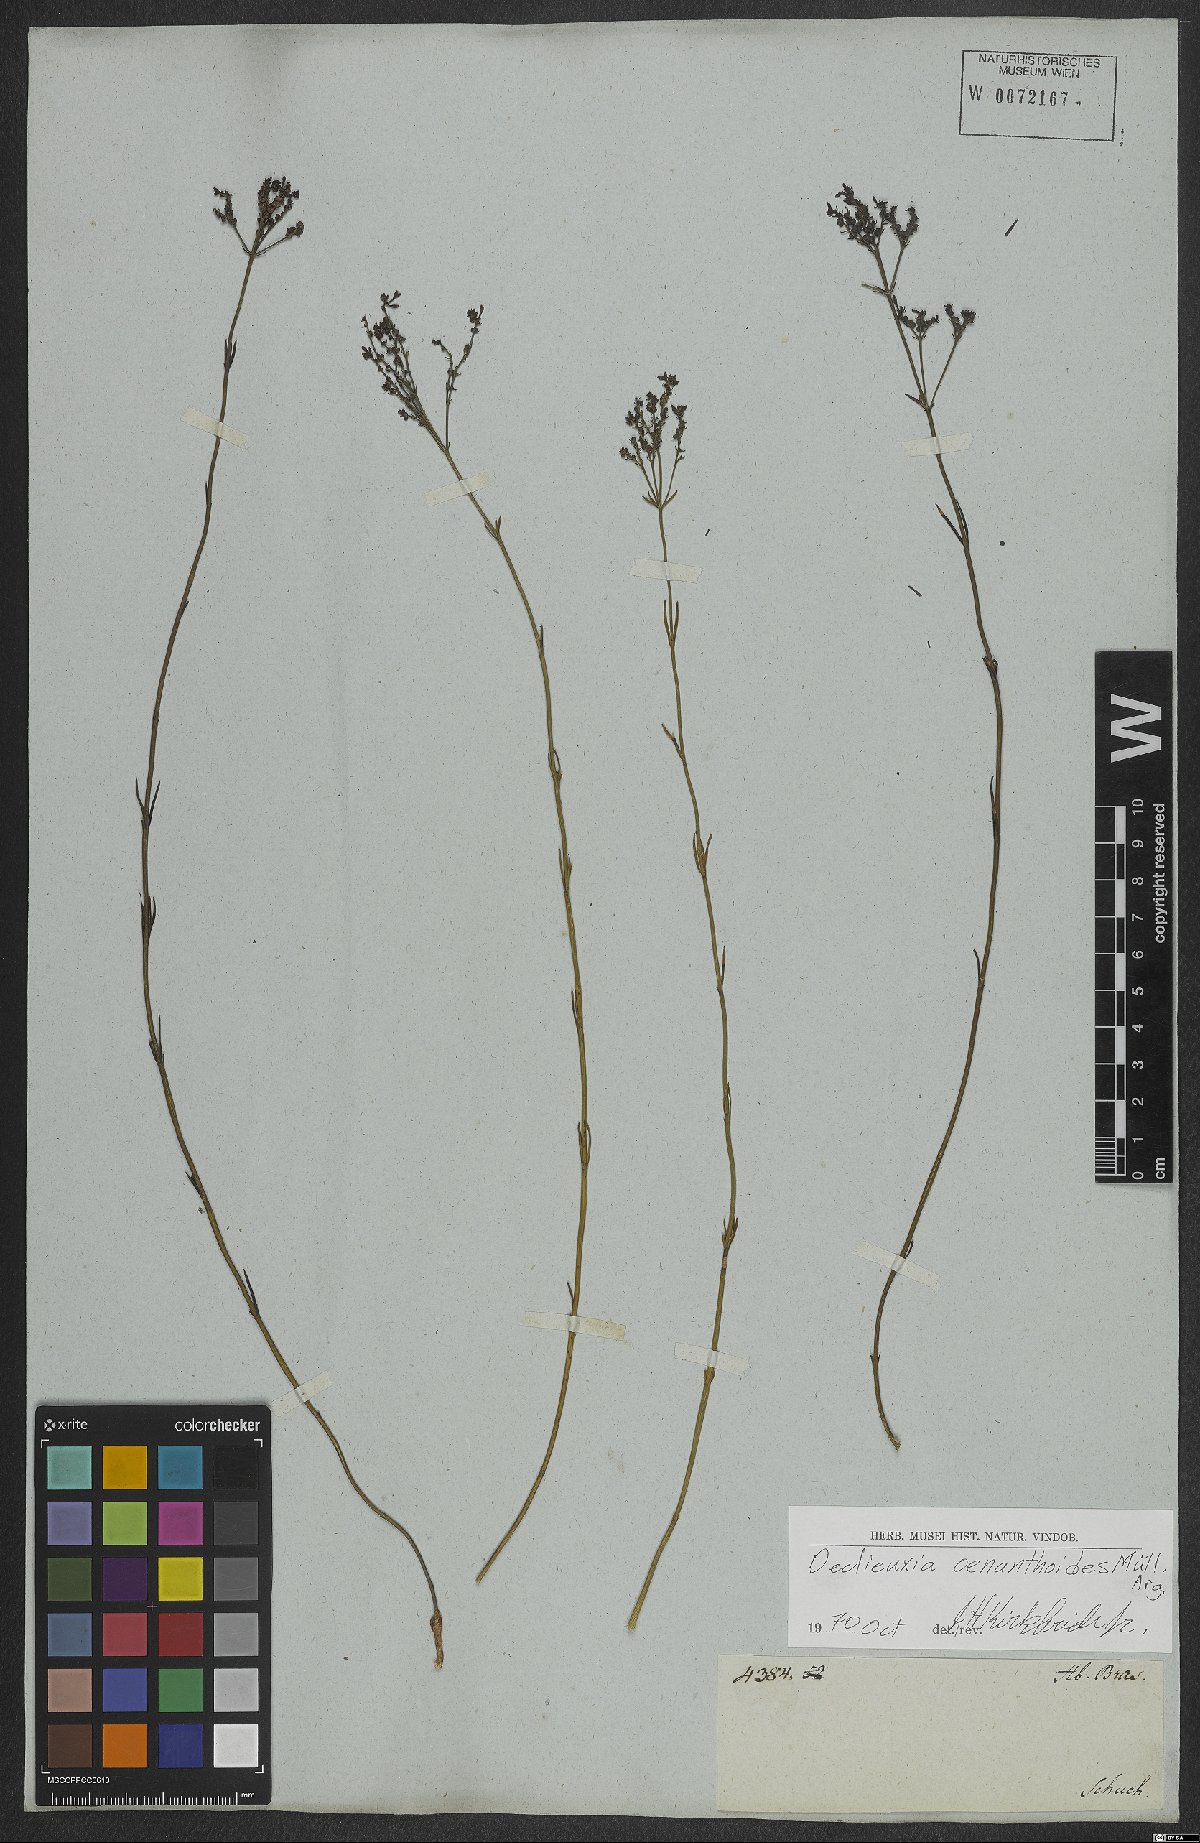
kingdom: Plantae
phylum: Tracheophyta
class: Magnoliopsida
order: Gentianales
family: Rubiaceae
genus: Declieuxia
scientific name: Declieuxia oenanthoides
